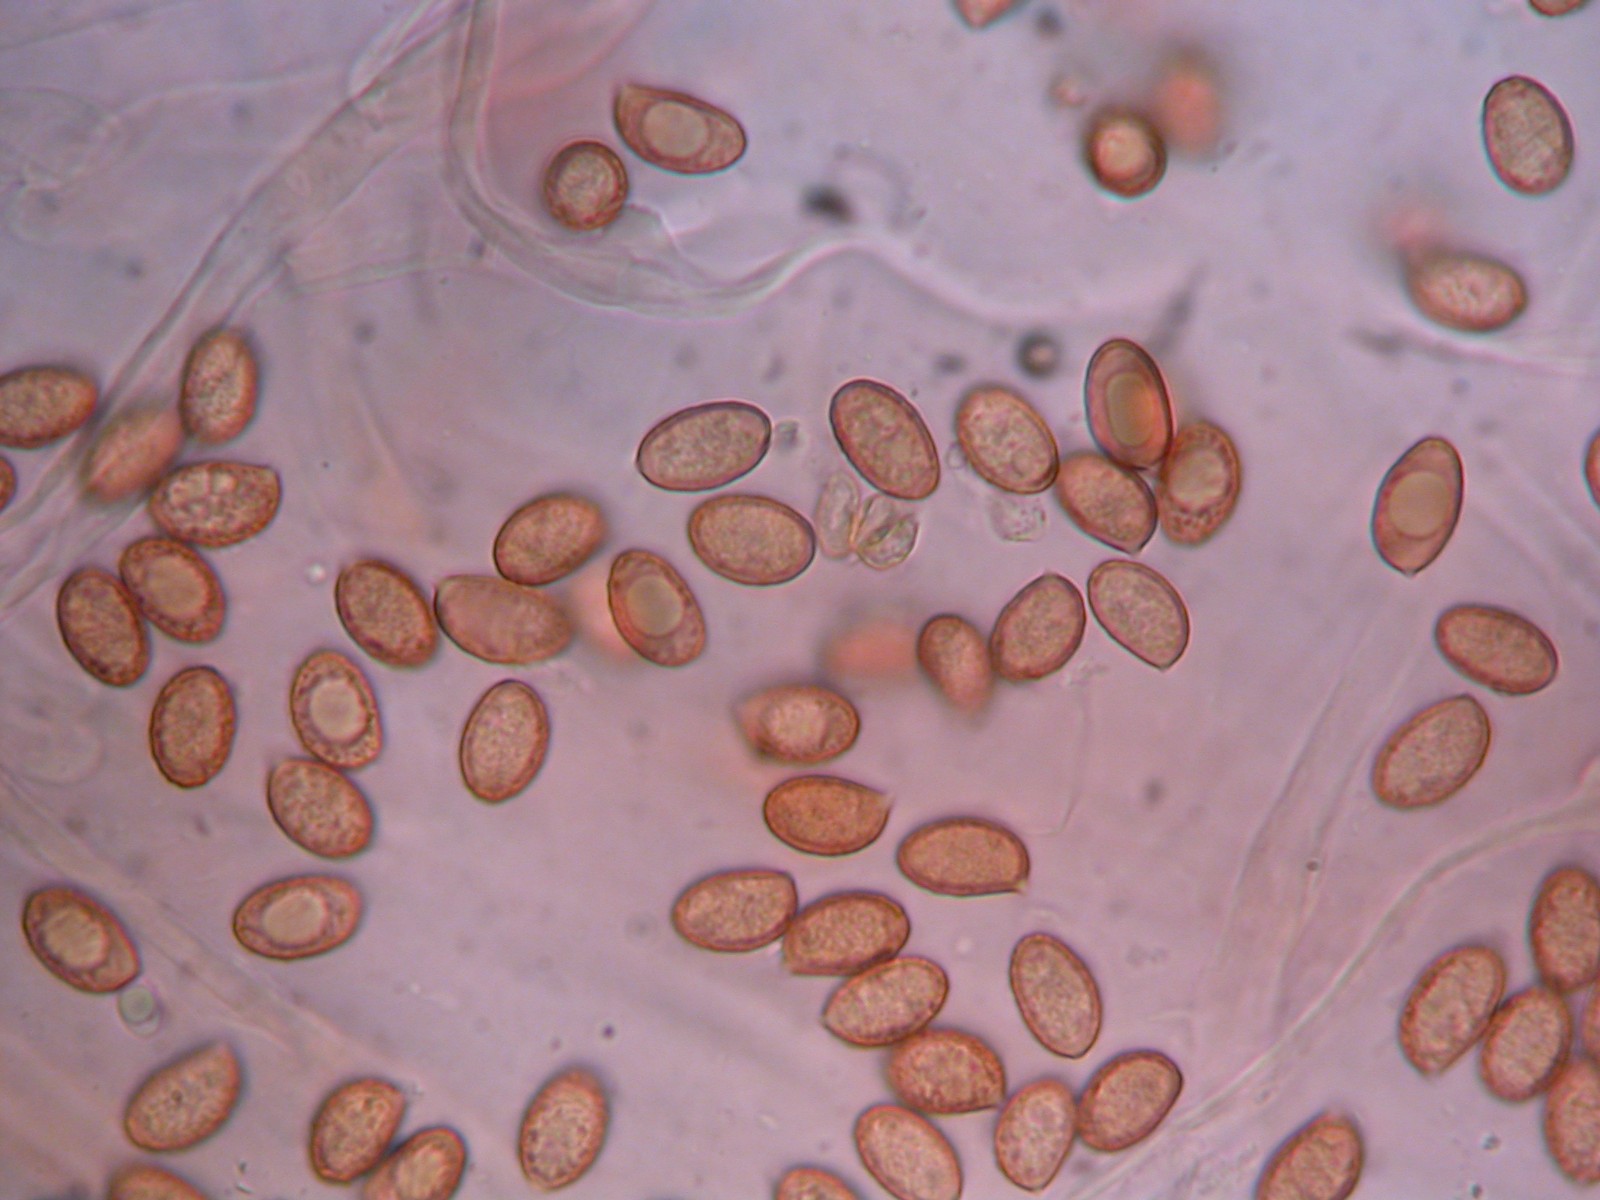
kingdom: Fungi
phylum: Basidiomycota
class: Agaricomycetes
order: Agaricales
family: Cortinariaceae
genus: Thaxterogaster
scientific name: Thaxterogaster scaurus
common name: sump-slørhat
